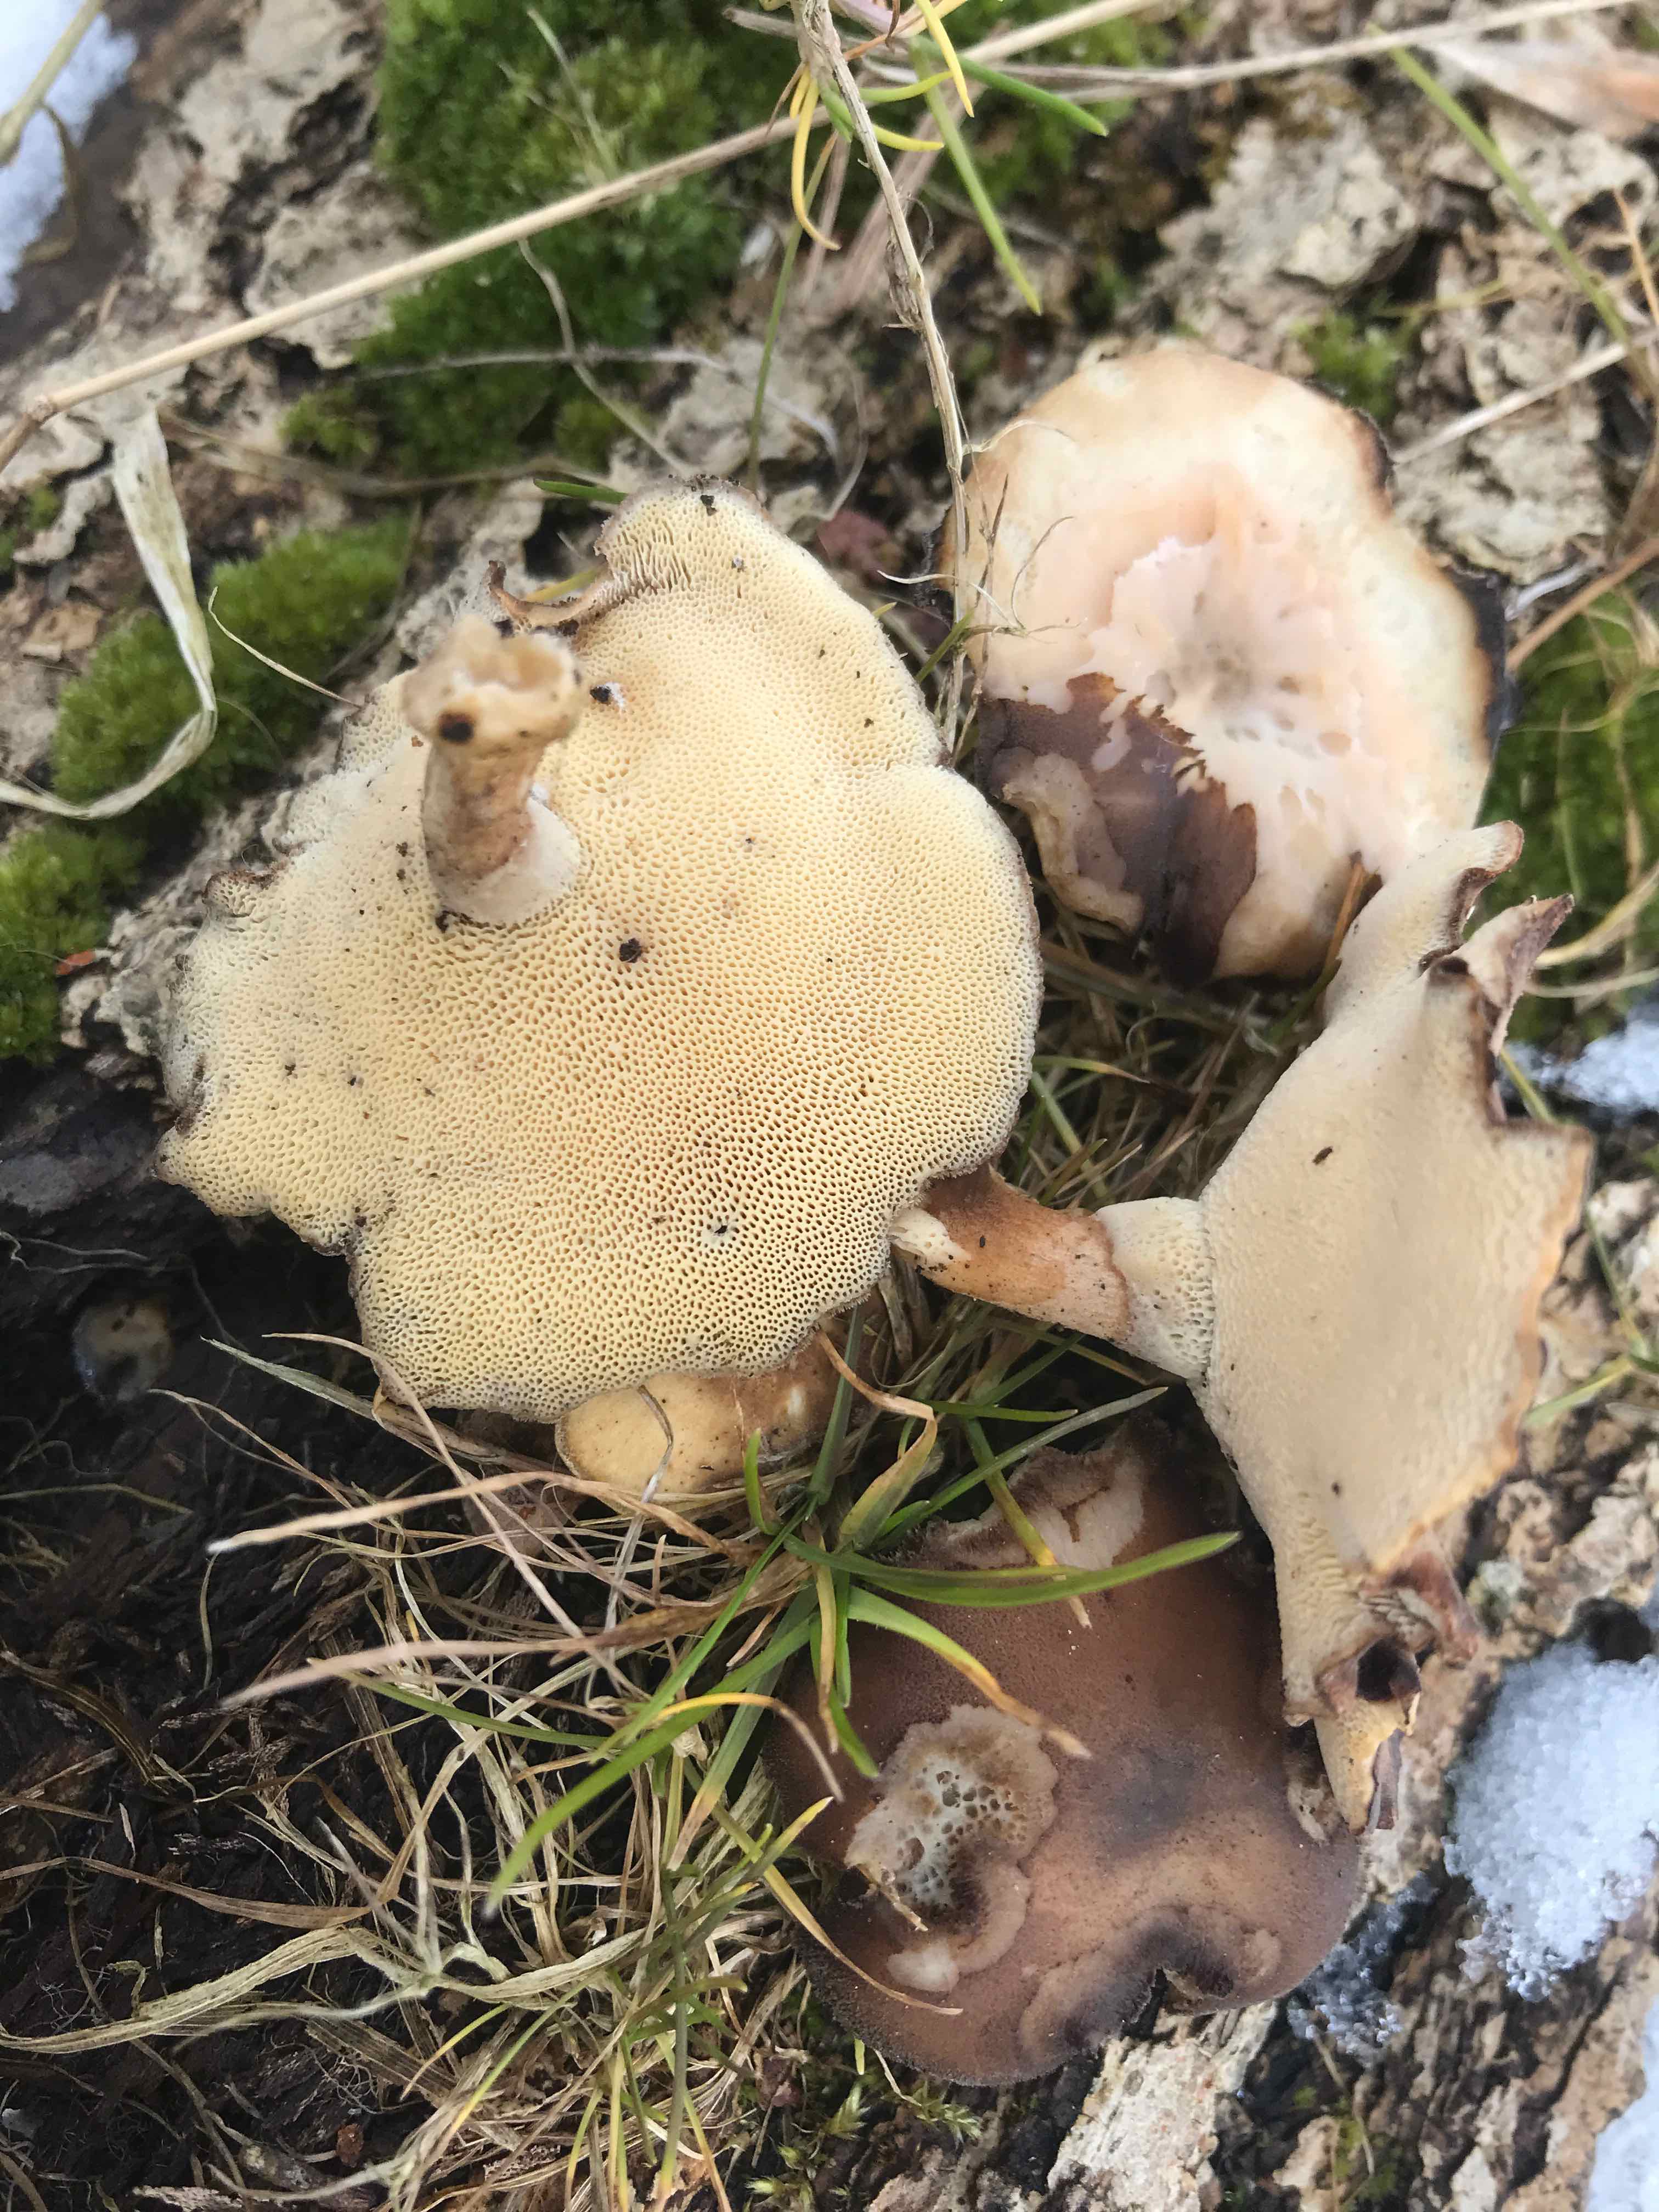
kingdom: Fungi
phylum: Basidiomycota
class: Agaricomycetes
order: Polyporales
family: Polyporaceae
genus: Lentinus
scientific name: Lentinus brumalis
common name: vinter-stilkporesvamp
